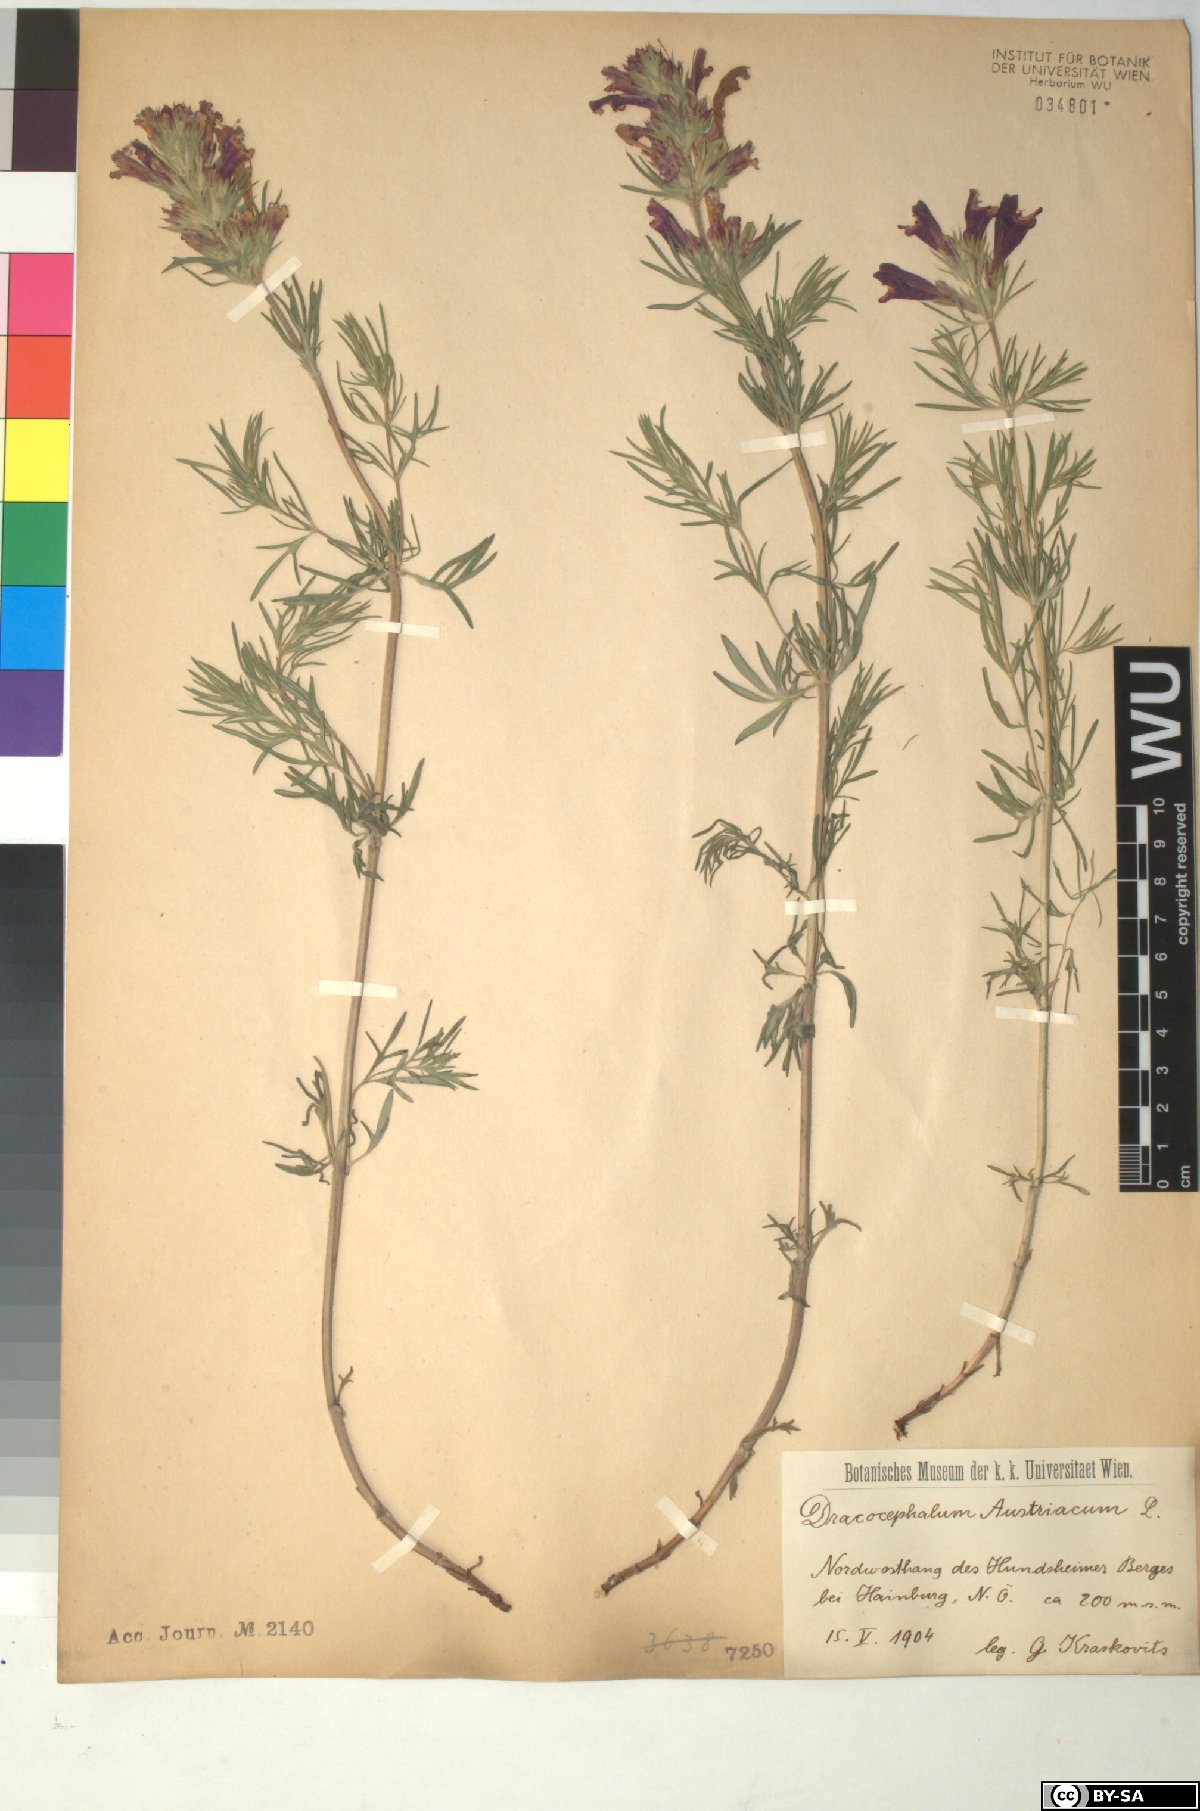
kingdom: Plantae
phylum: Tracheophyta
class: Magnoliopsida
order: Lamiales
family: Lamiaceae
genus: Dracocephalum
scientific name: Dracocephalum austriacum
